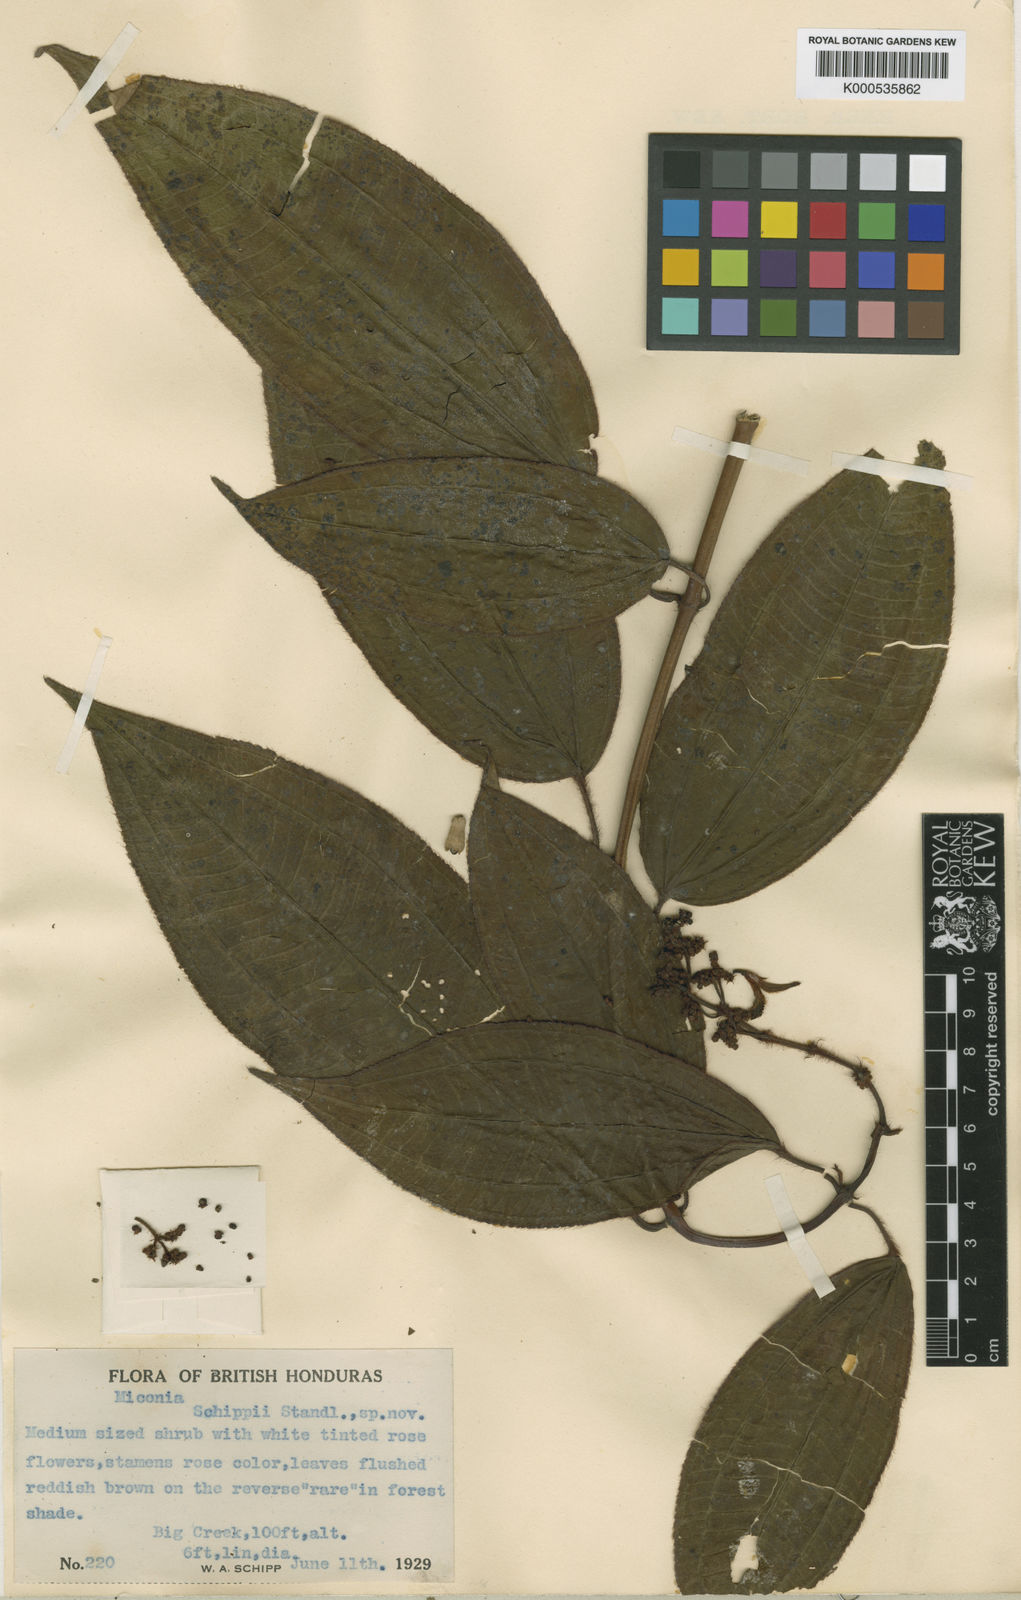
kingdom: Plantae
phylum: Tracheophyta
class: Magnoliopsida
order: Myrtales
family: Melastomataceae
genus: Miconia
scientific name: Miconia schippii
